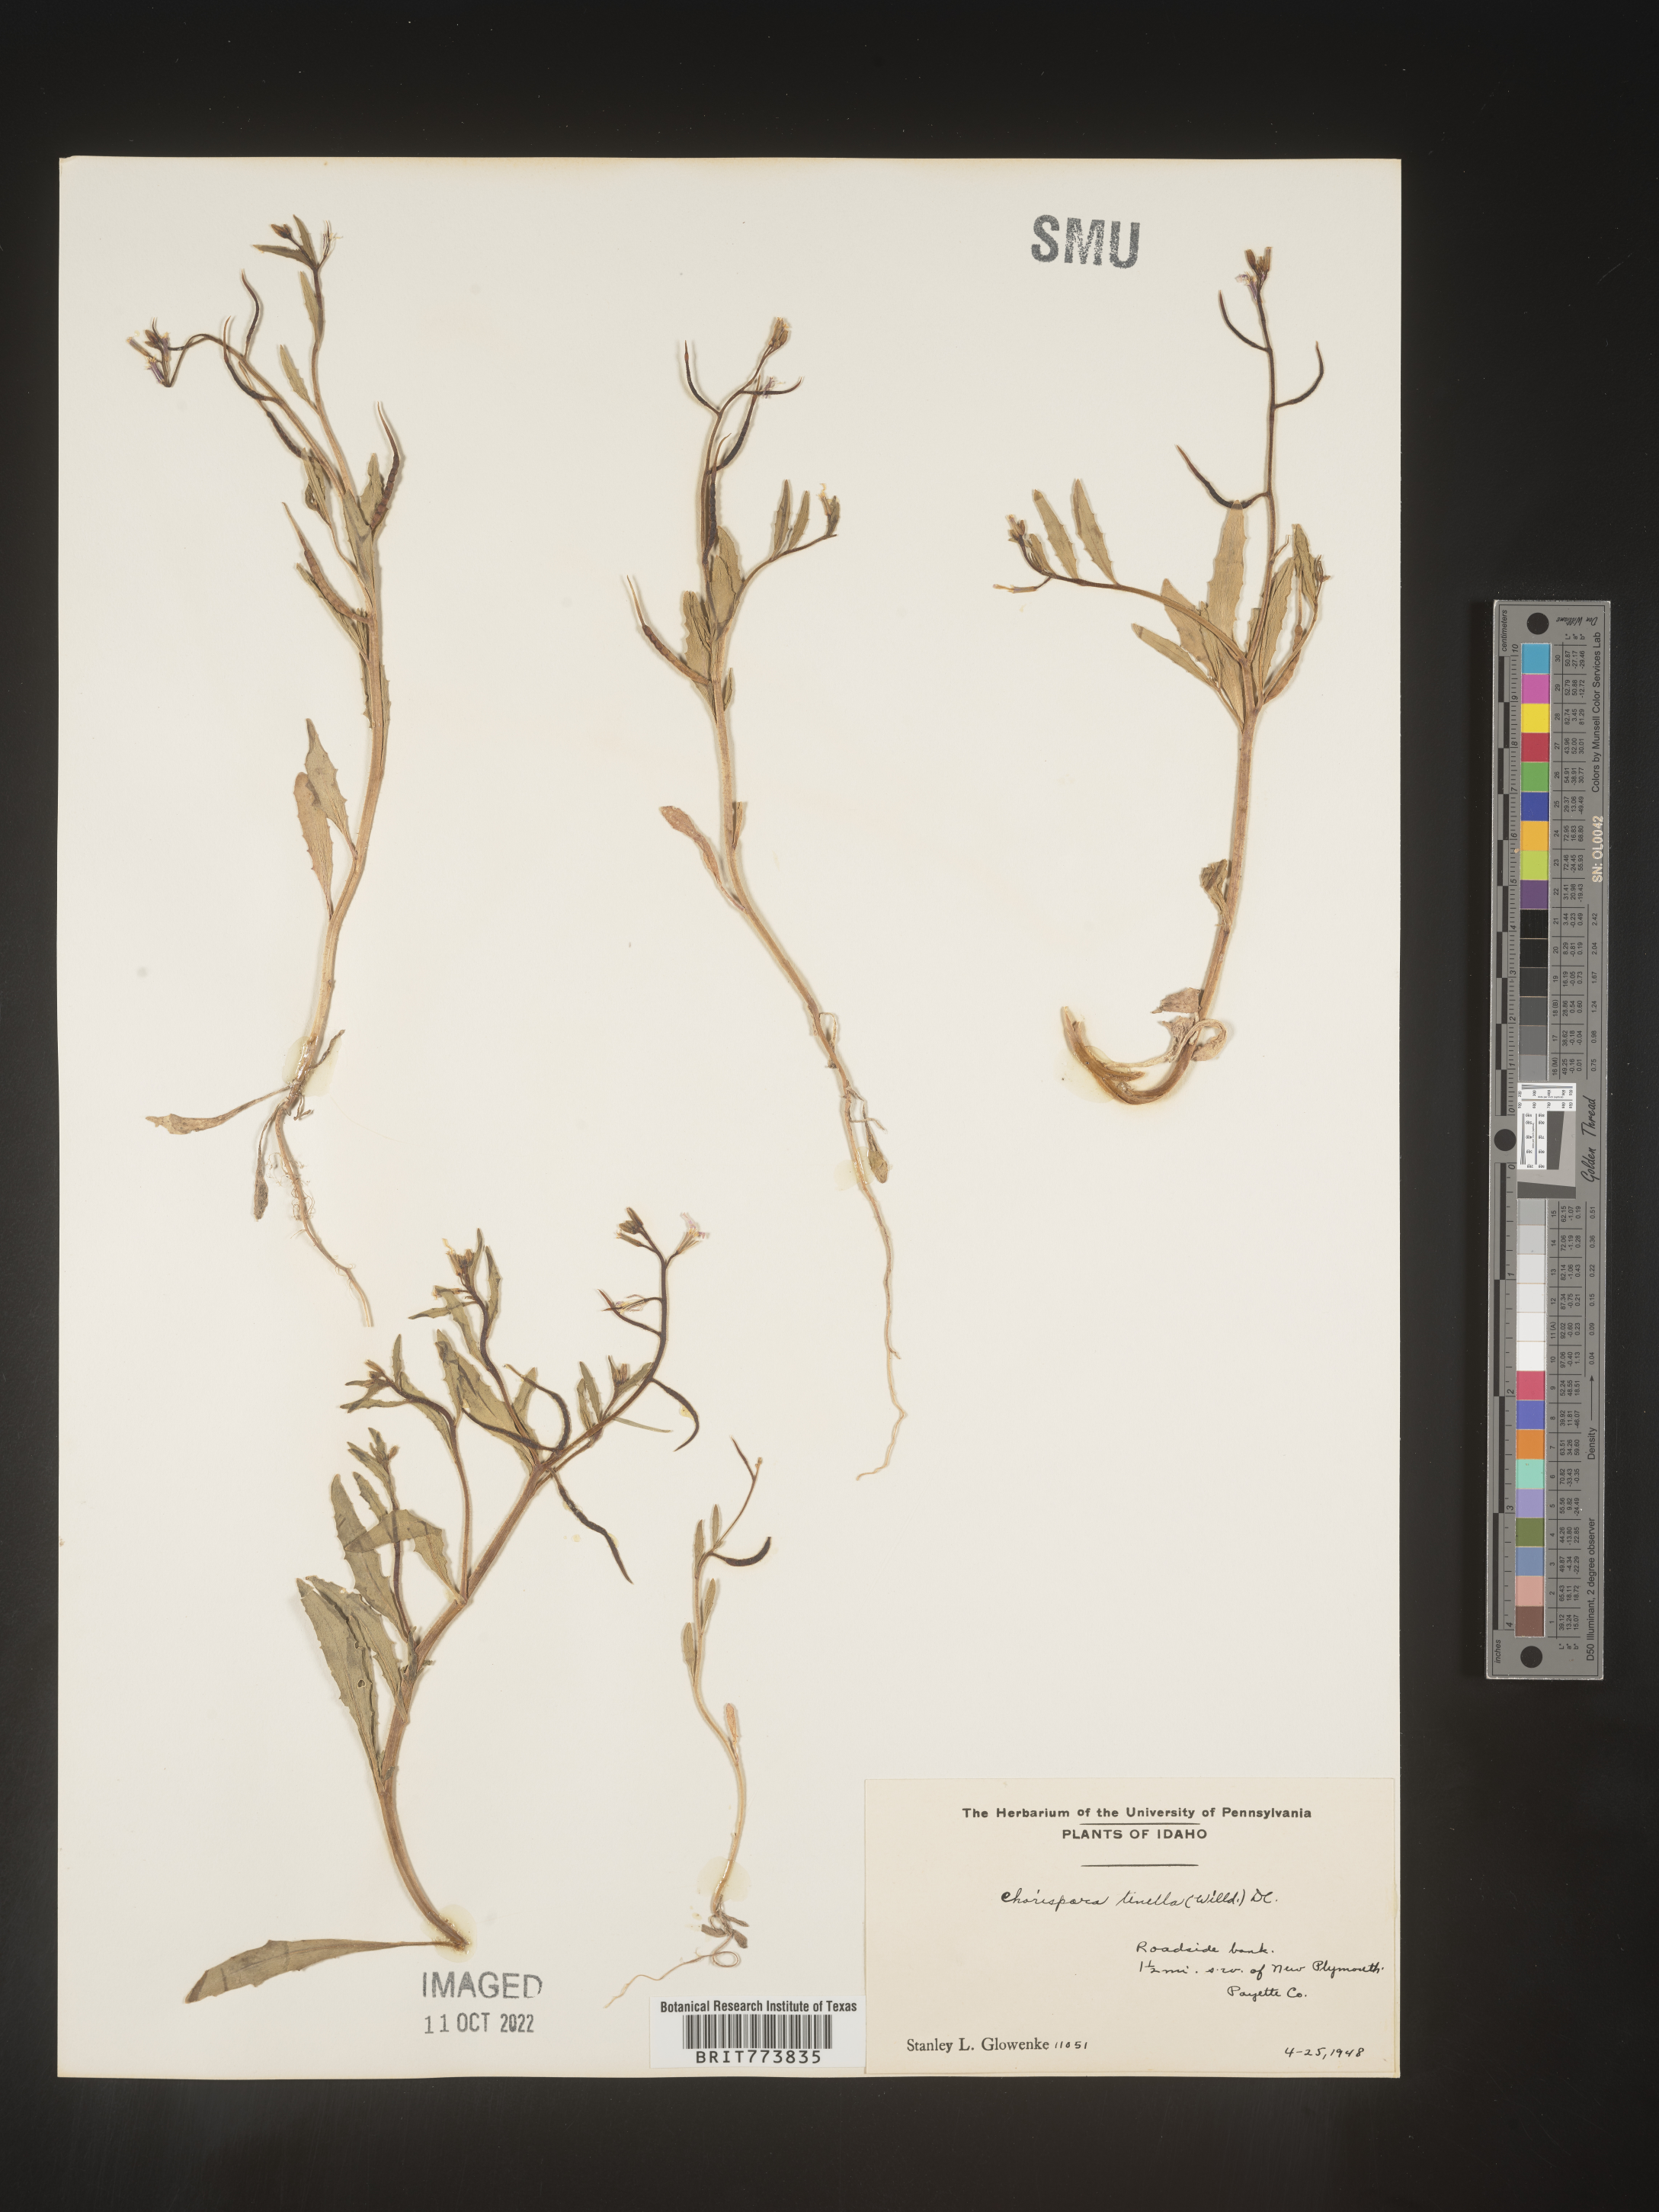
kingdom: Plantae
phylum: Tracheophyta
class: Magnoliopsida
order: Brassicales
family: Brassicaceae
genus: Chorispora
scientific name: Chorispora tenella
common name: Crossflower
